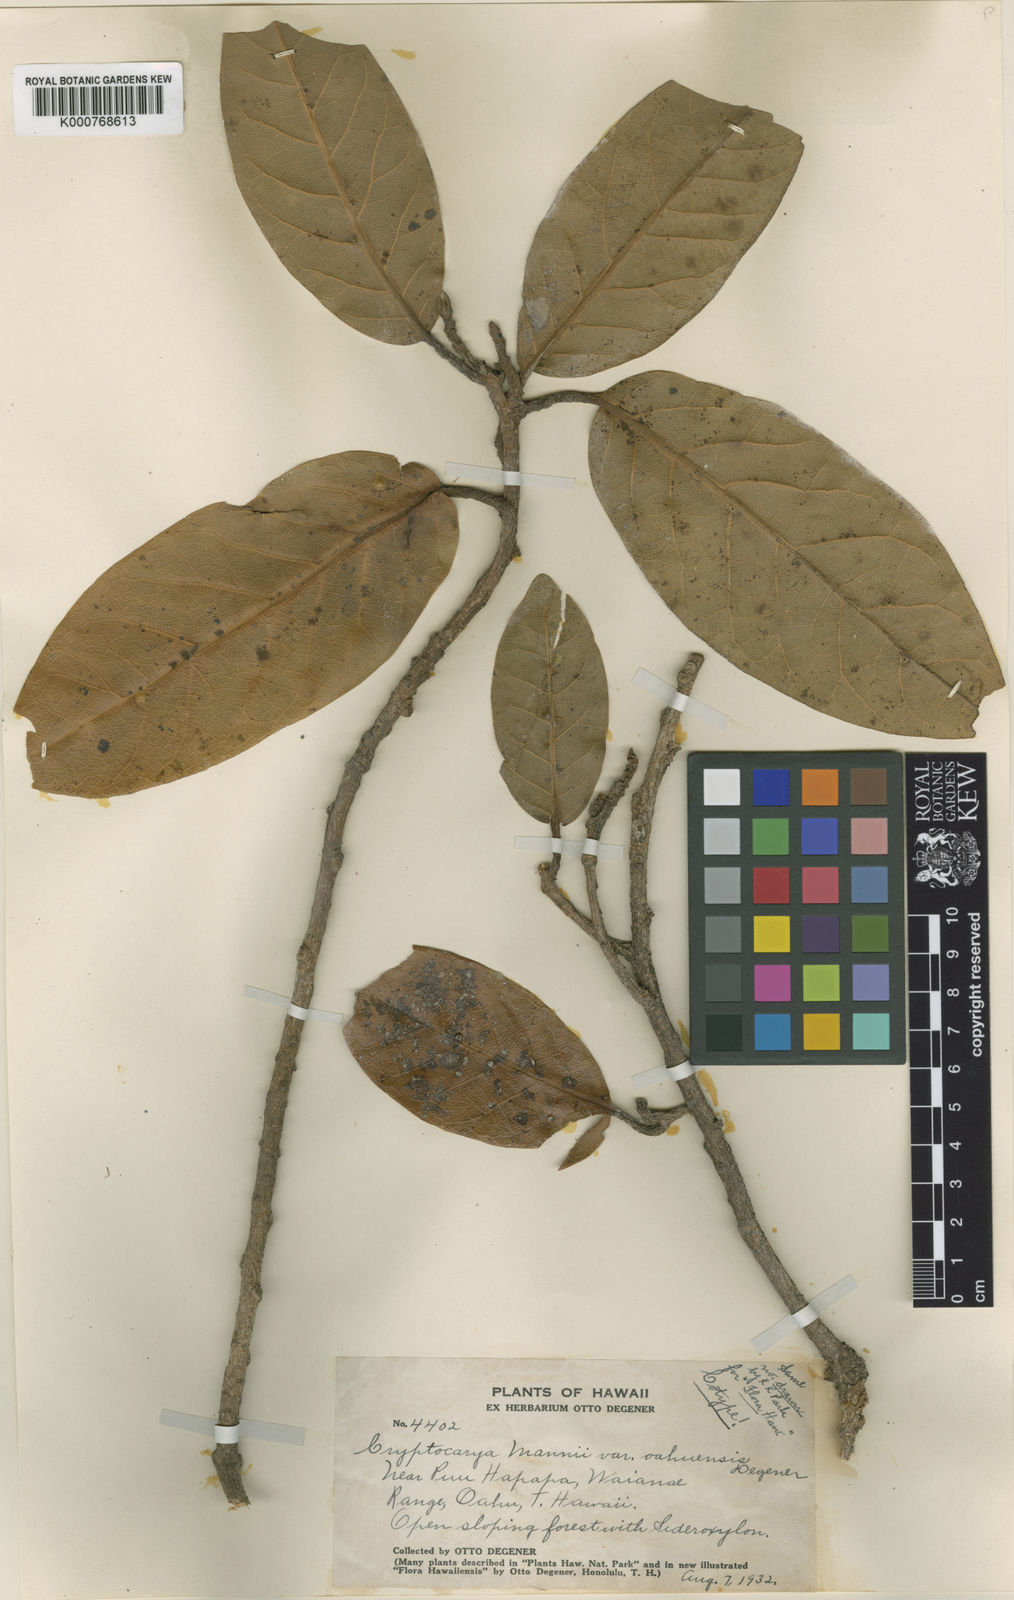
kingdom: Plantae
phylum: Tracheophyta
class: Magnoliopsida
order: Laurales
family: Lauraceae
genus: Cryptocarya
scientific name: Cryptocarya mannii
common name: Mann cryptocarya
